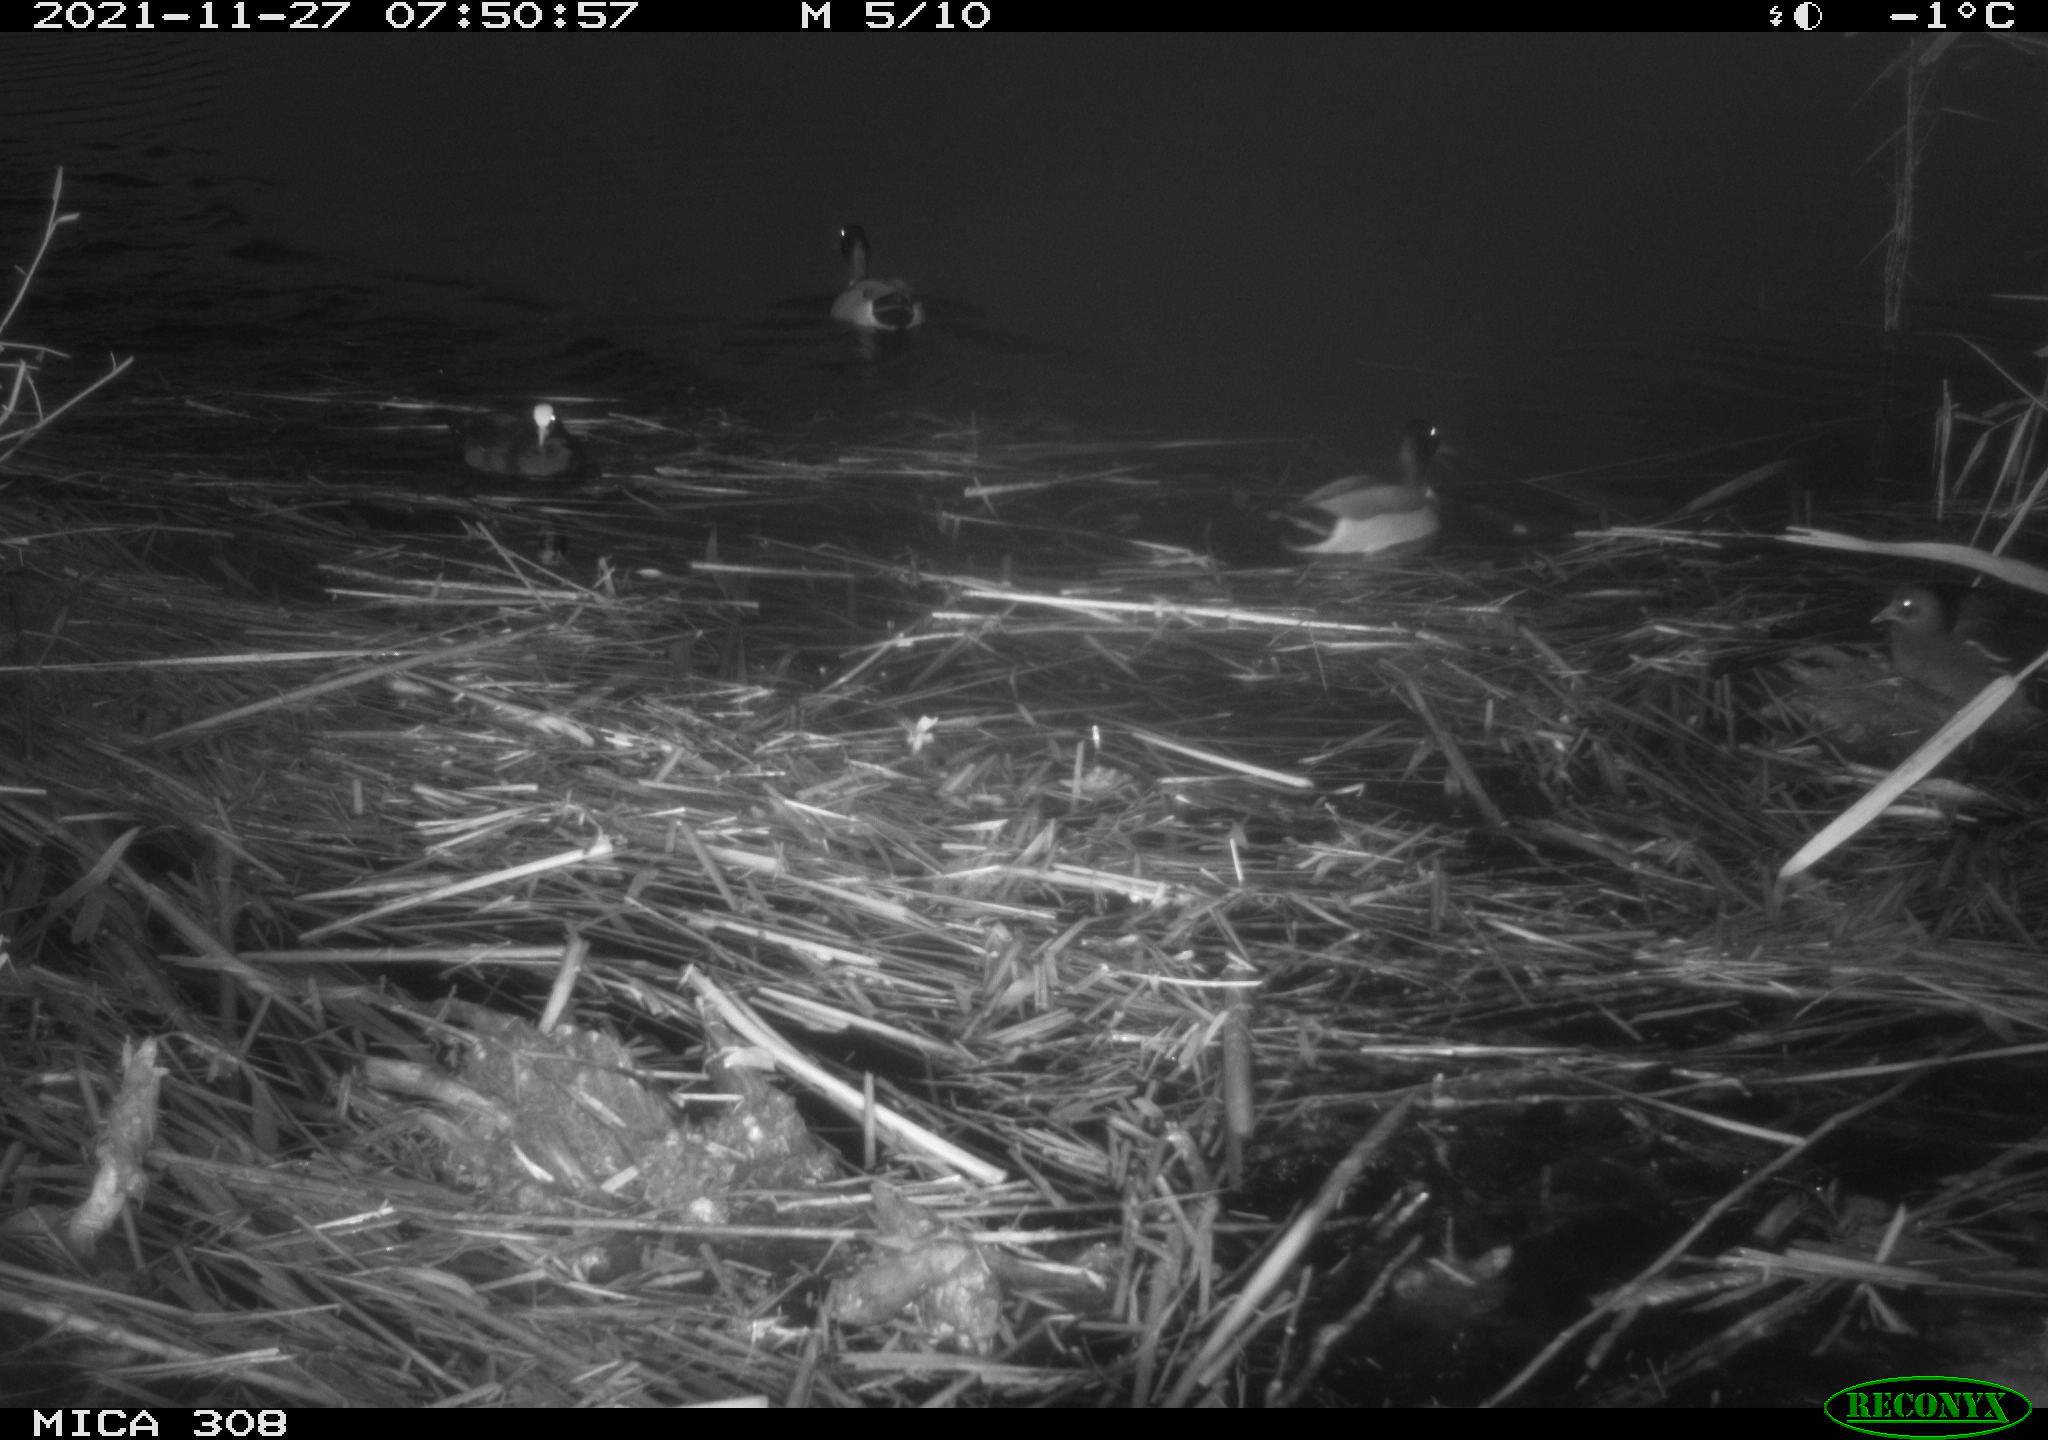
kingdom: Animalia
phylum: Chordata
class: Aves
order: Gruiformes
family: Rallidae
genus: Fulica
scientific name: Fulica atra
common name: Eurasian coot
